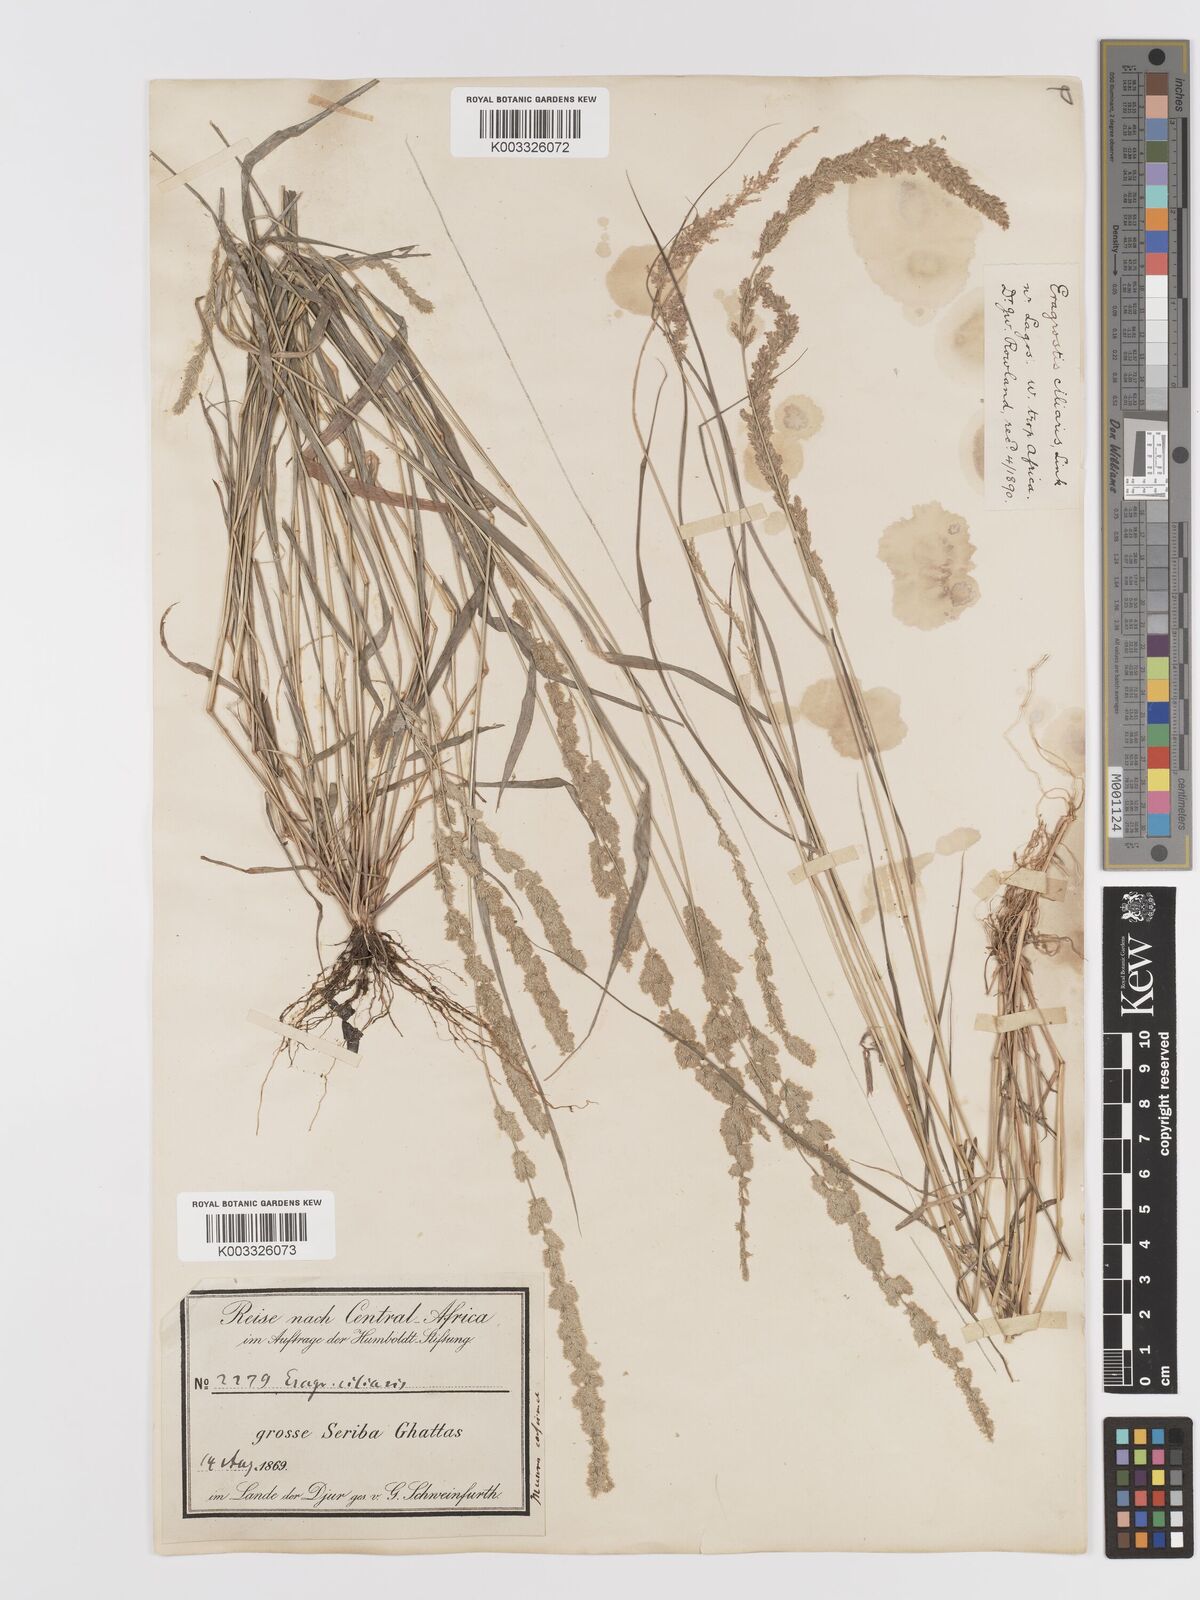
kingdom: Plantae
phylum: Tracheophyta
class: Liliopsida
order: Poales
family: Poaceae
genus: Eragrostis
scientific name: Eragrostis ciliaris
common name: Gophertail lovegrass
